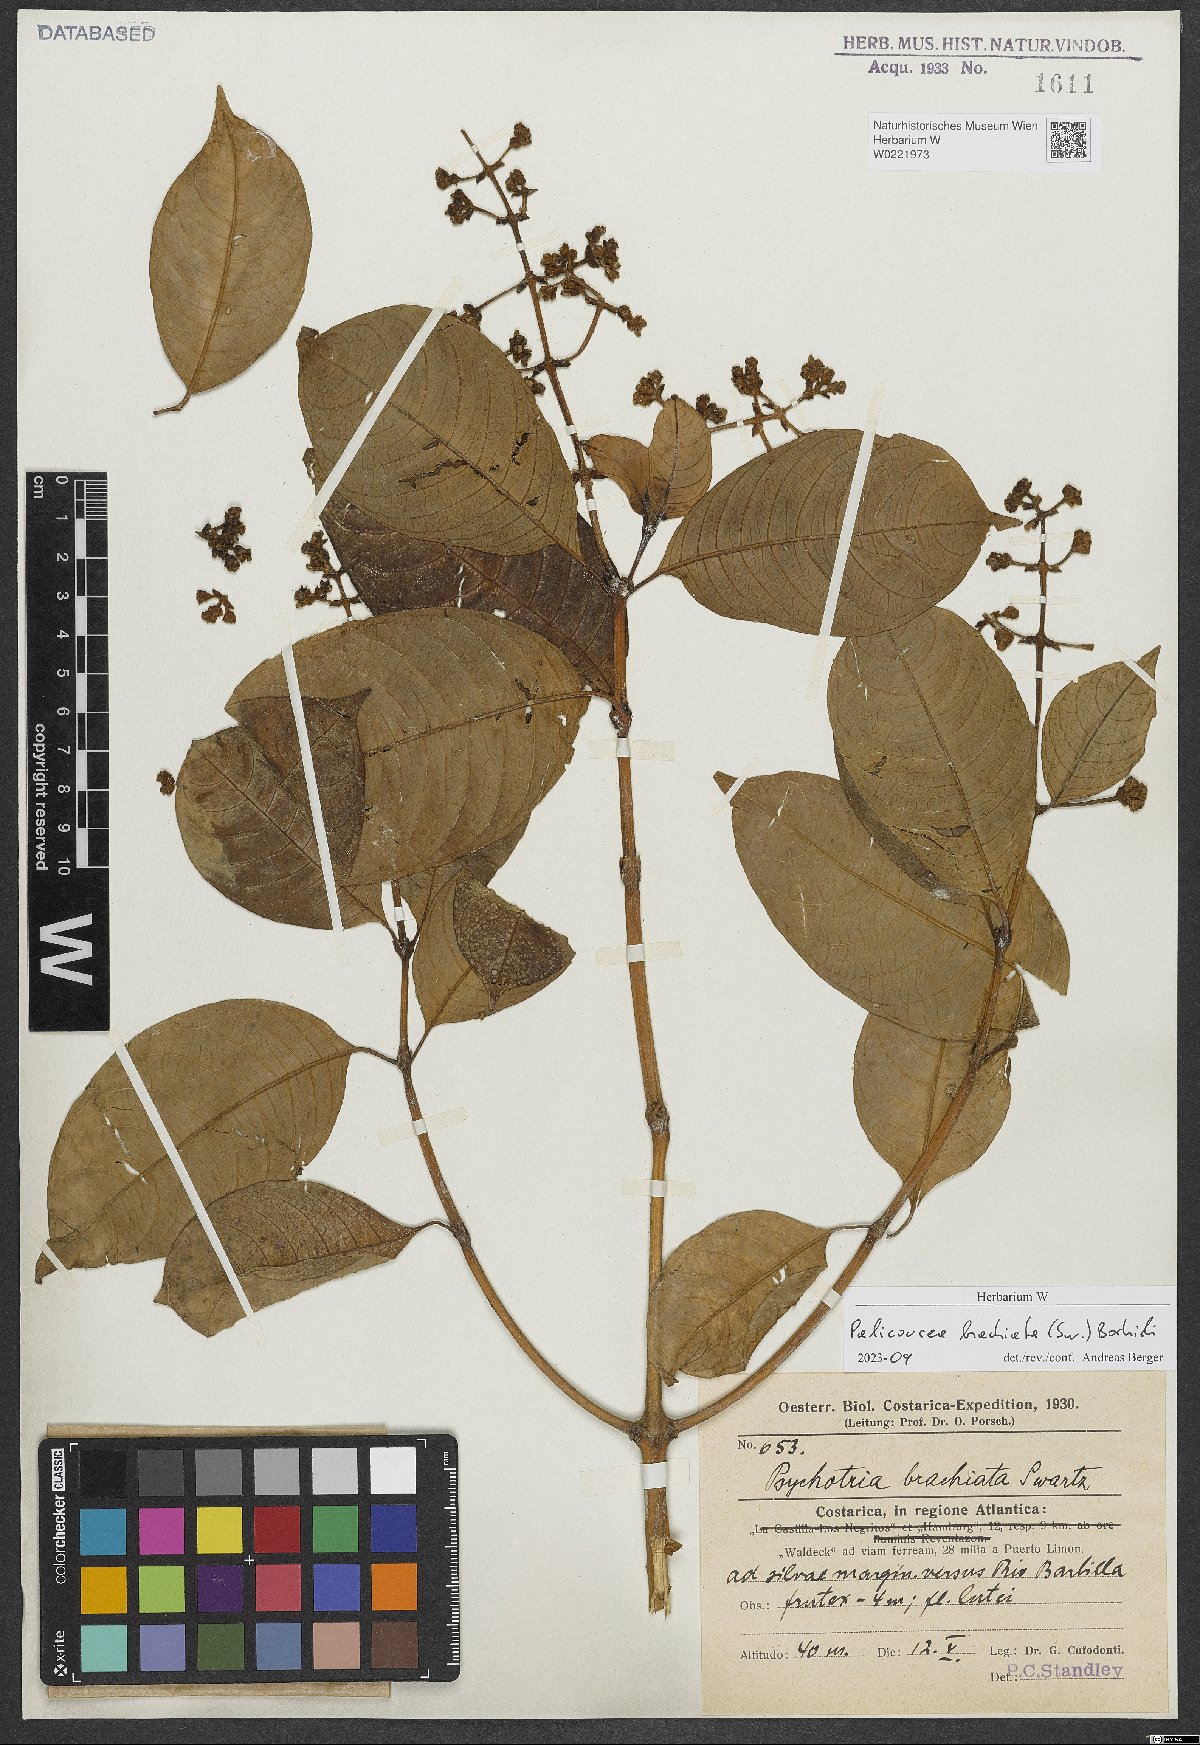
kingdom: Plantae
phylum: Tracheophyta
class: Magnoliopsida
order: Gentianales
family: Rubiaceae
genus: Palicourea
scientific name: Palicourea brachiata
